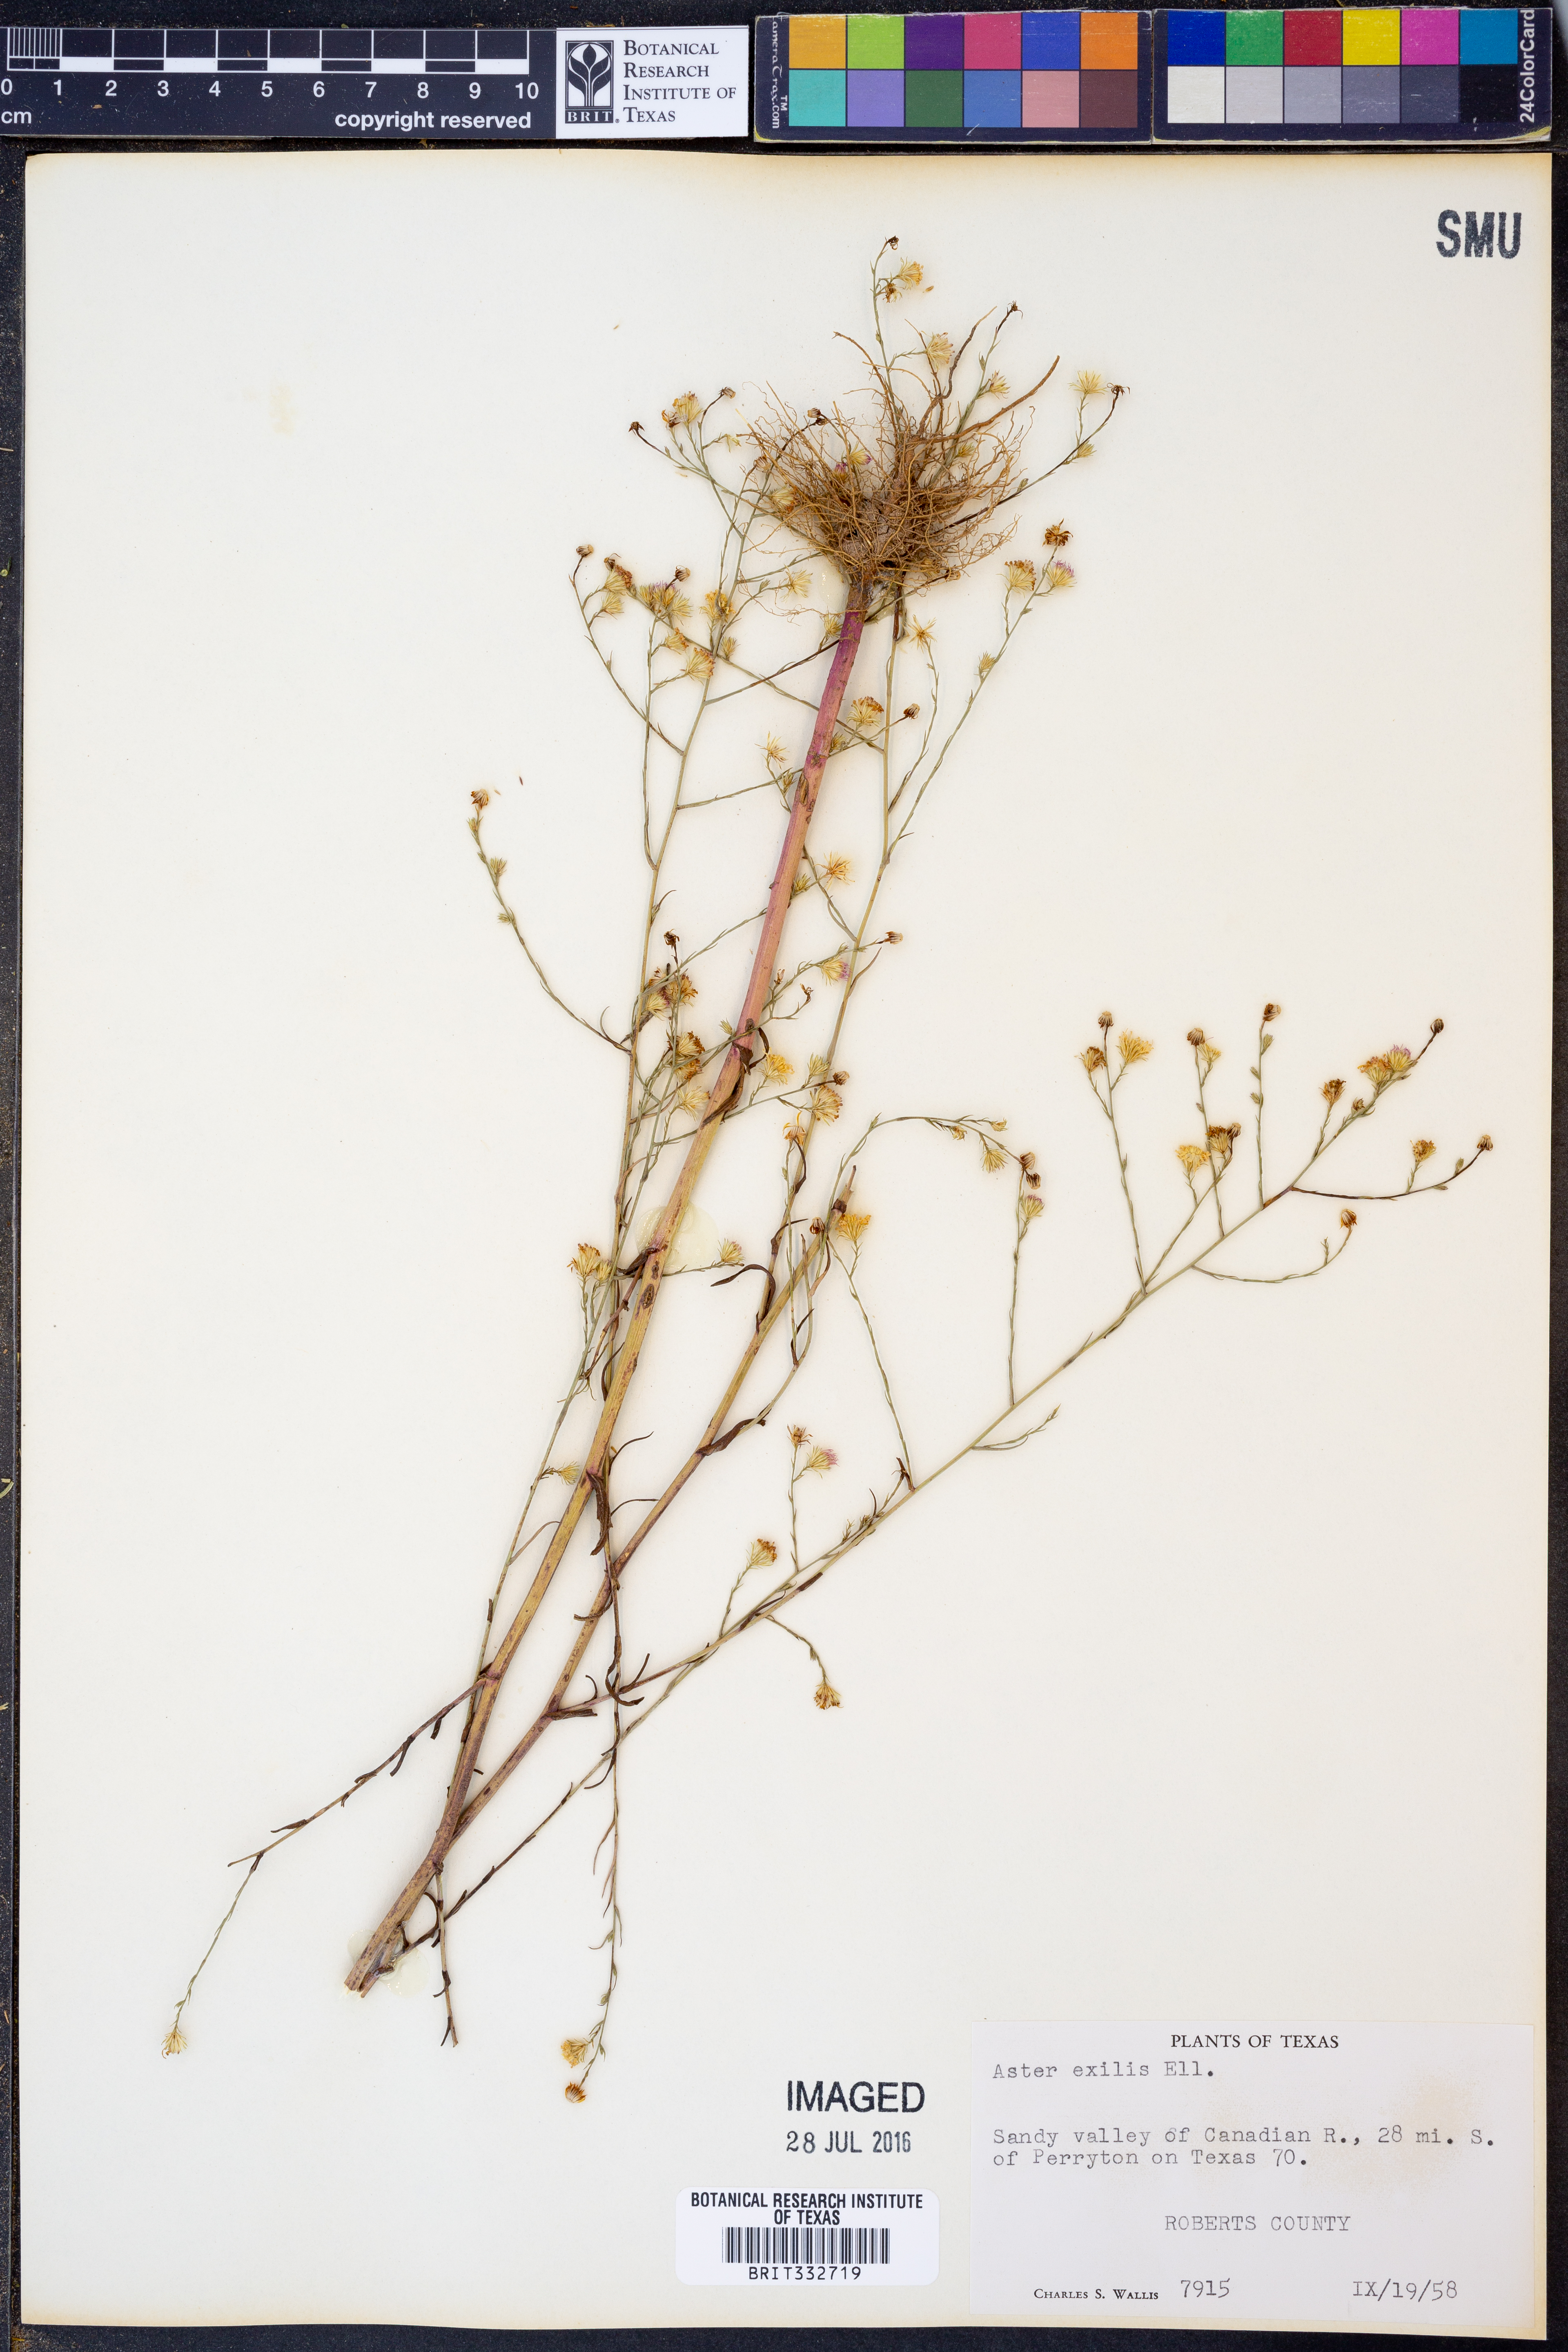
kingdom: Plantae
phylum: Tracheophyta
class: Magnoliopsida
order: Asterales
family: Asteraceae
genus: Symphyotrichum
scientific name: Symphyotrichum expansum
